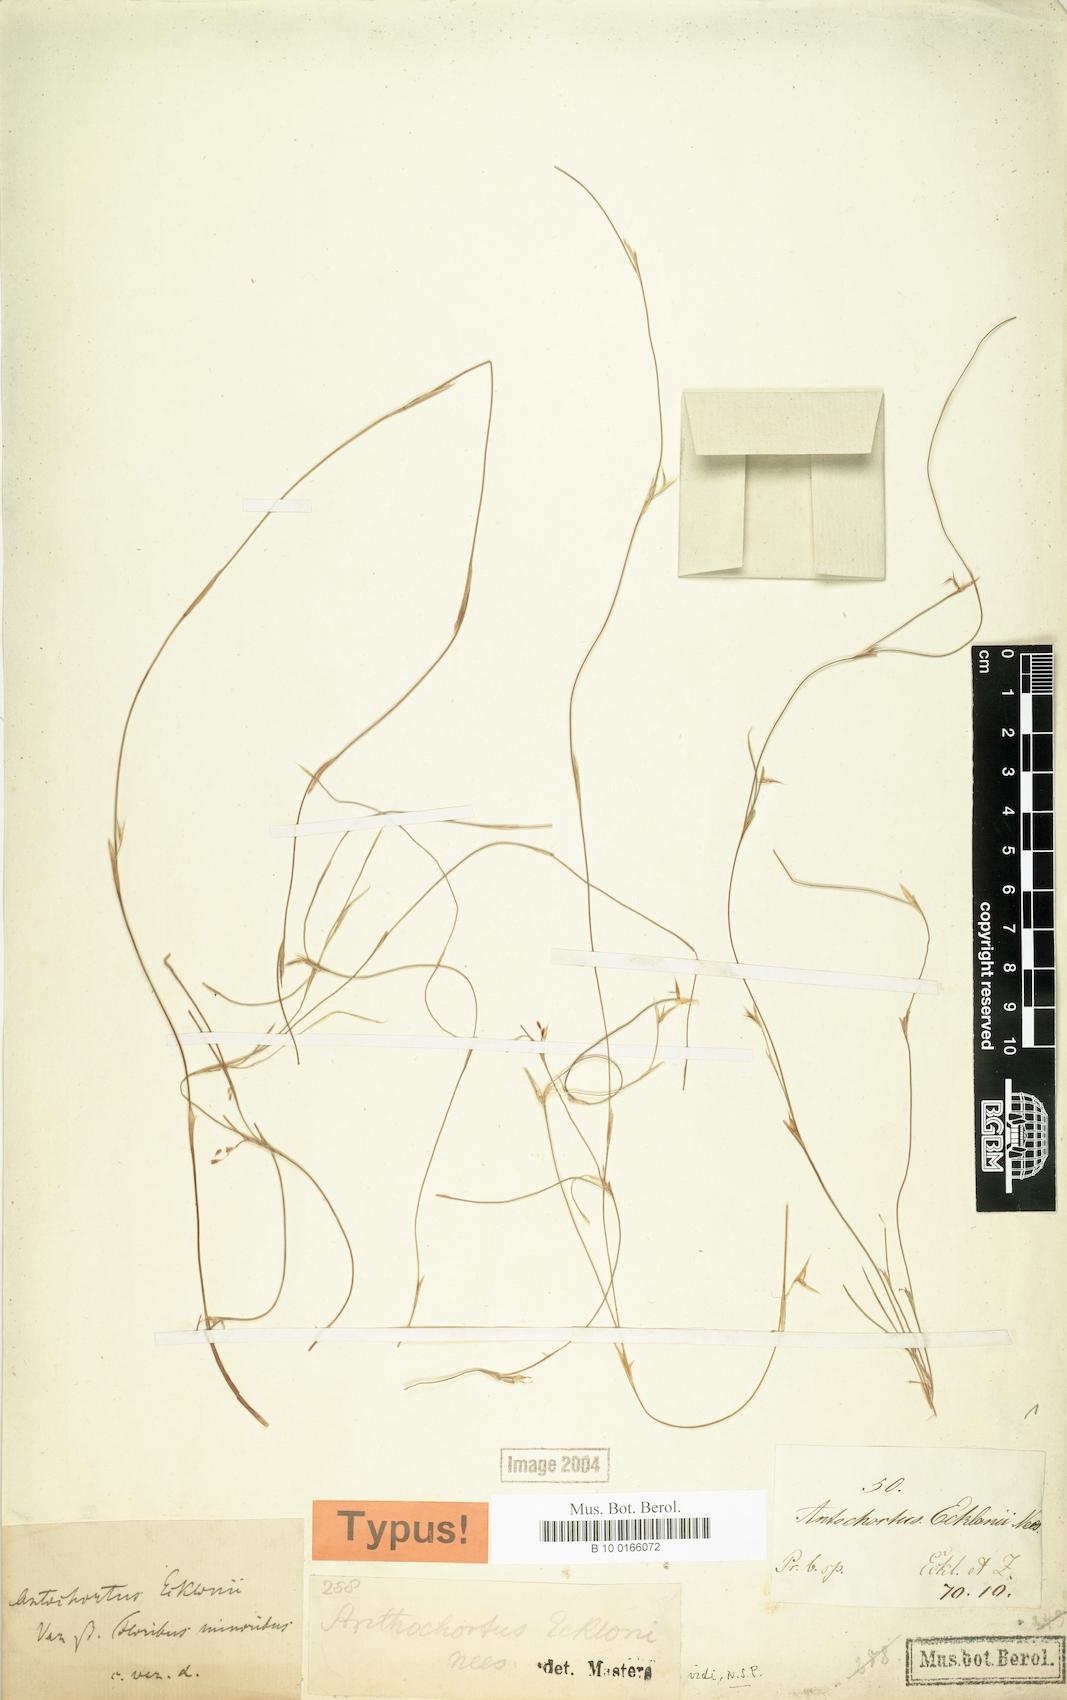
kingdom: Plantae
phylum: Tracheophyta
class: Liliopsida
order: Poales
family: Restionaceae
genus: Anthochortus
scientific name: Anthochortus ecklonii
